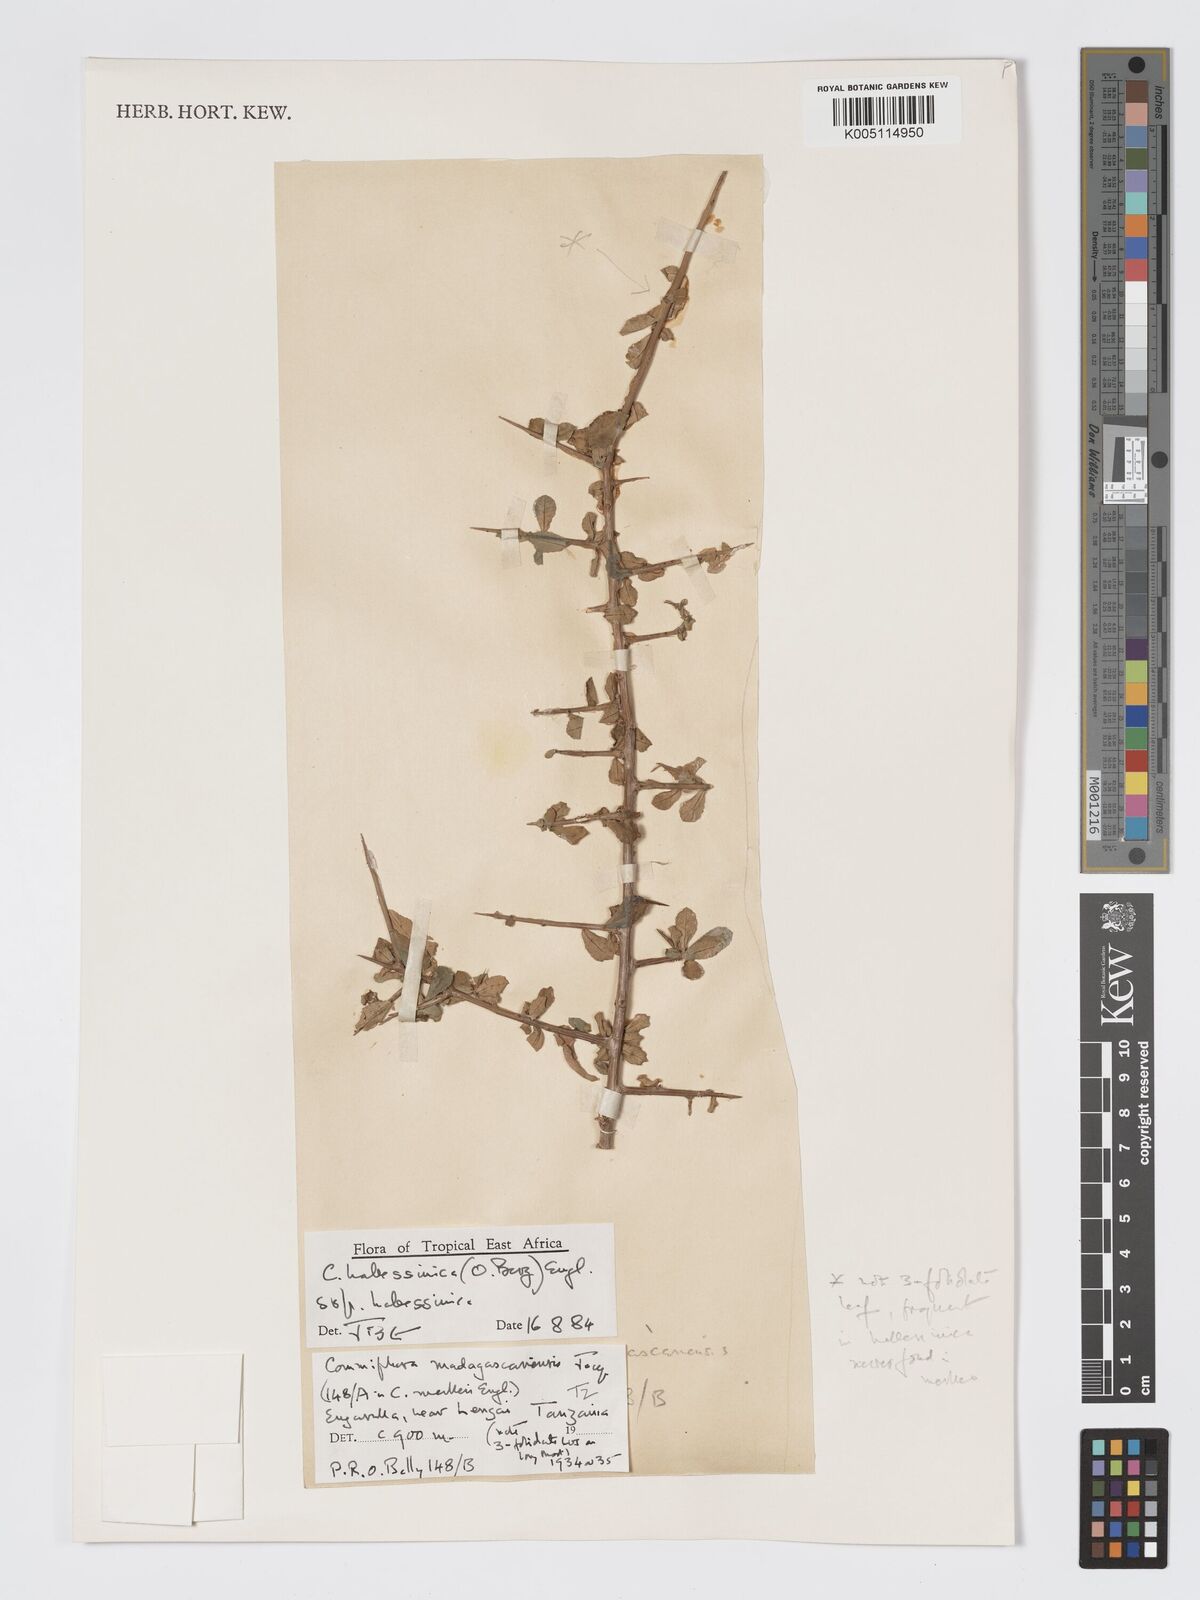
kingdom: Plantae
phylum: Tracheophyta
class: Magnoliopsida
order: Sapindales
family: Burseraceae
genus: Commiphora
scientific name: Commiphora madagascariensis
